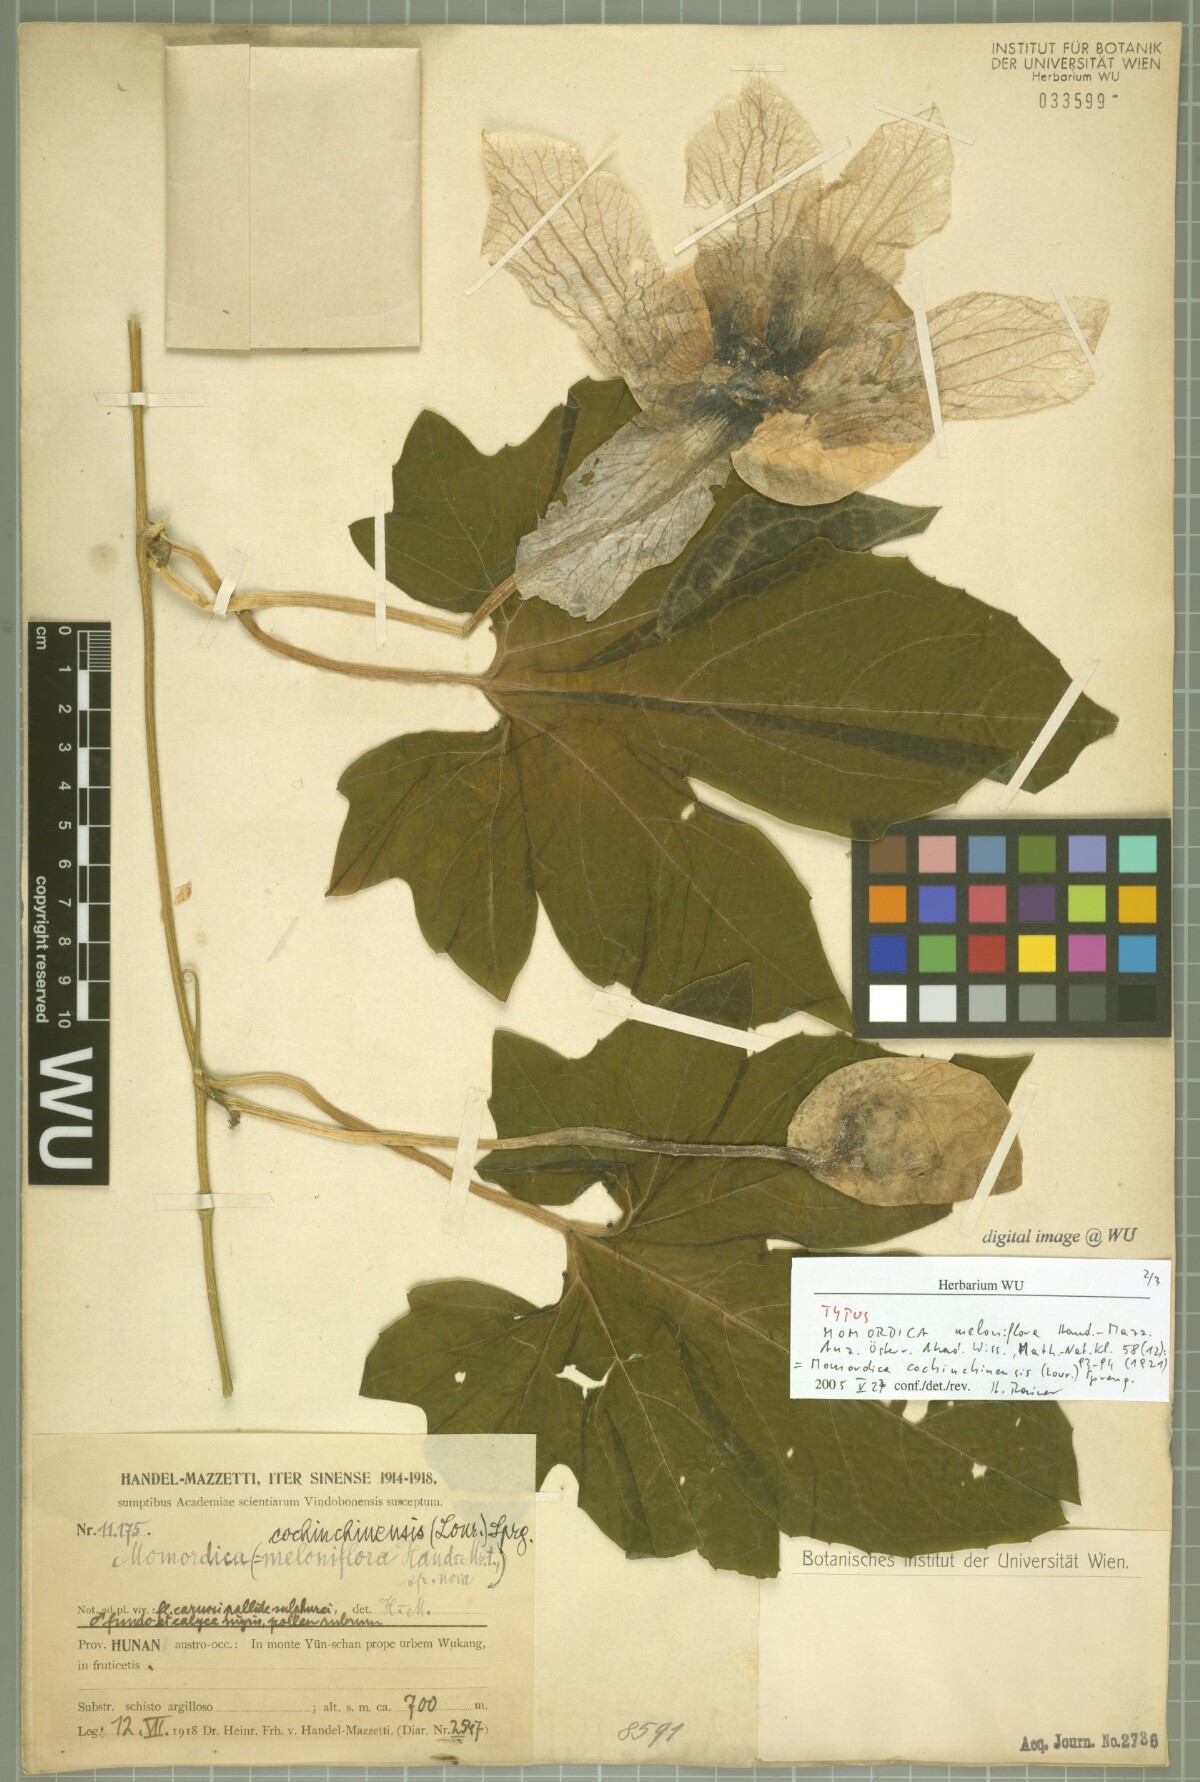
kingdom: Plantae
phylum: Tracheophyta
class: Magnoliopsida
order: Cucurbitales
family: Cucurbitaceae
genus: Momordica
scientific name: Momordica cochinchinensis
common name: Chinese bitter-cucumber
